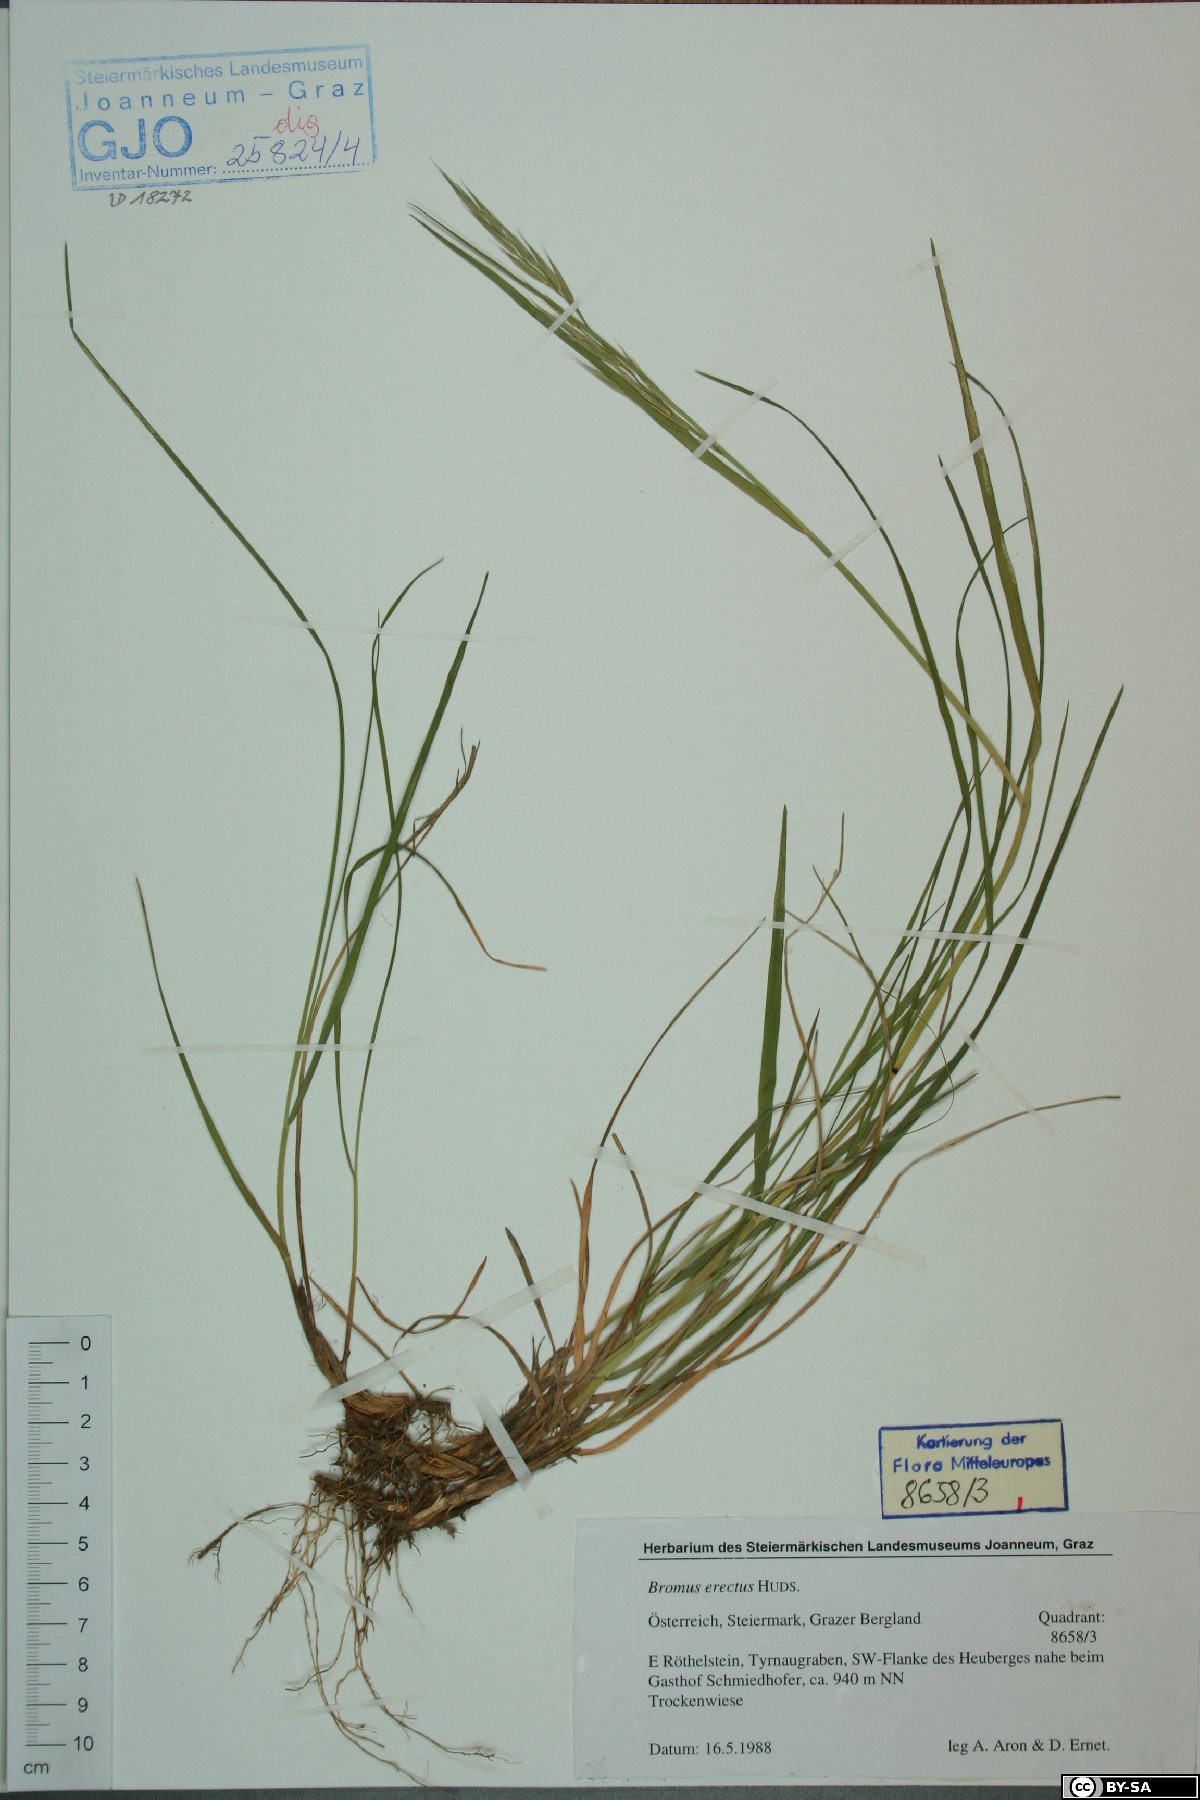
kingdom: Plantae
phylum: Tracheophyta
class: Liliopsida
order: Poales
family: Poaceae
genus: Bromus
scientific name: Bromus erectus
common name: Erect brome
